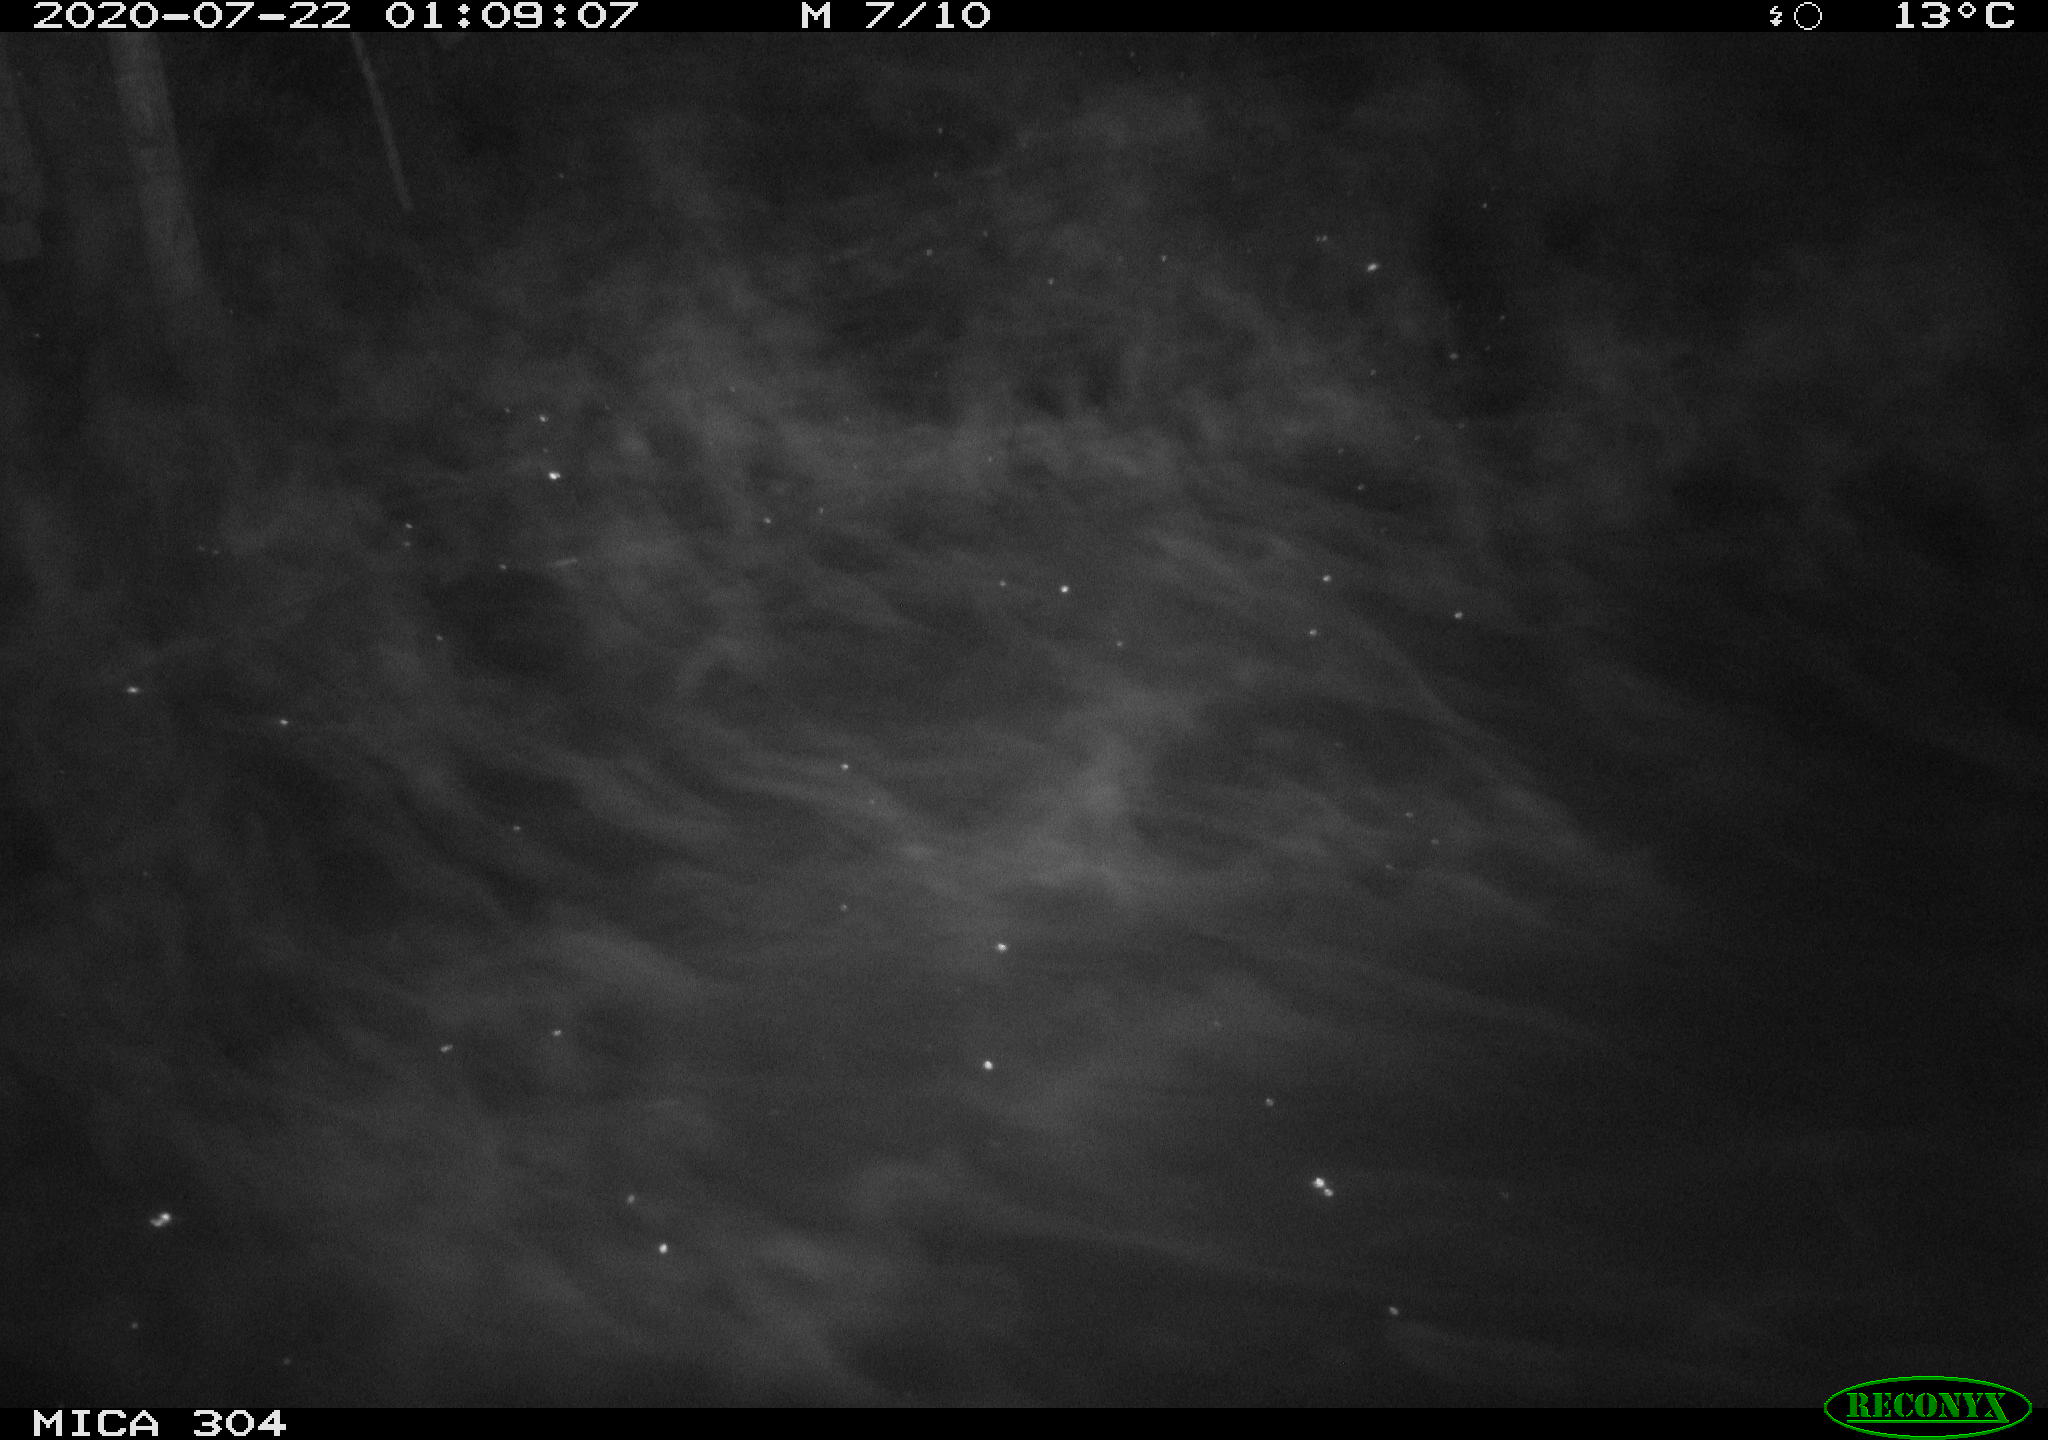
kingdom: Animalia
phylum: Chordata
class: Mammalia
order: Rodentia
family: Cricetidae
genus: Ondatra
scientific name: Ondatra zibethicus
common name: Muskrat
